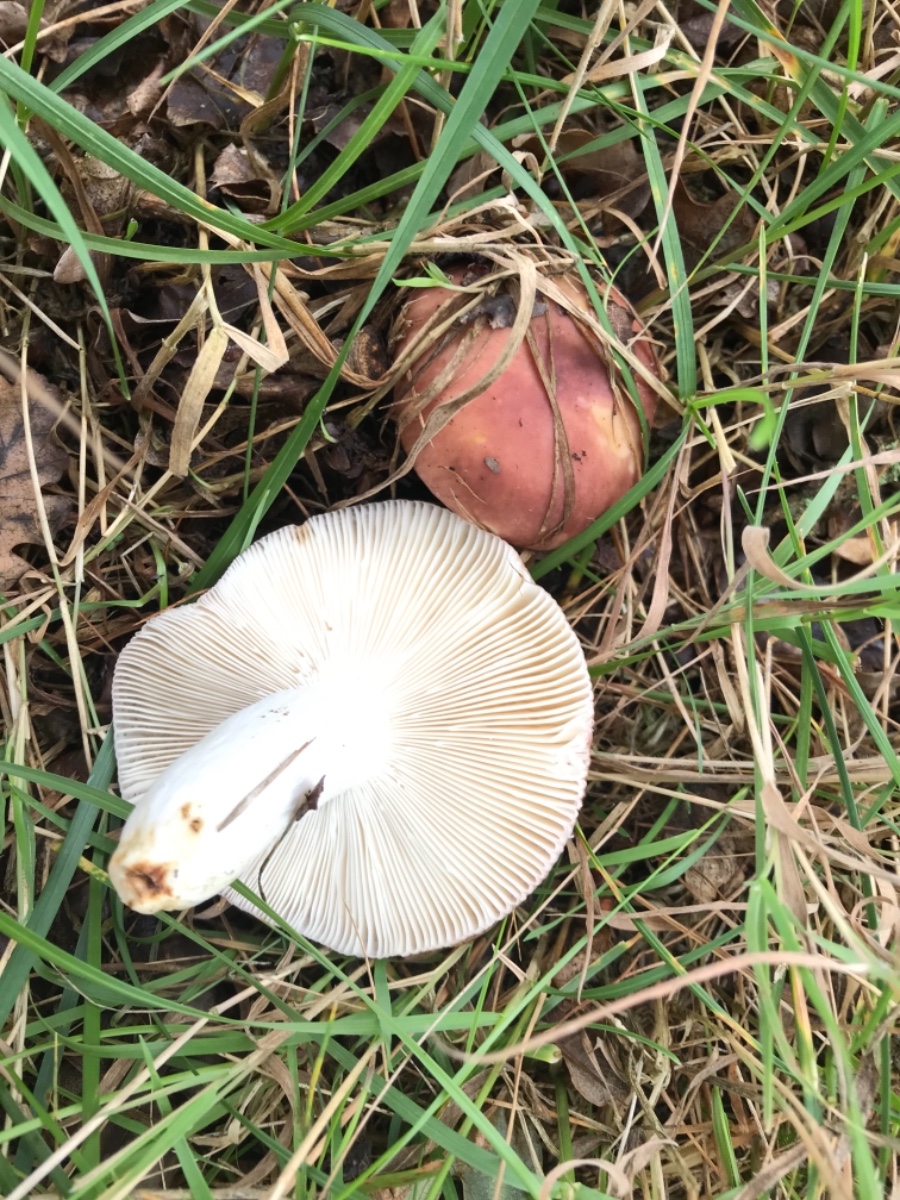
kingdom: Fungi
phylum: Basidiomycota
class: Agaricomycetes
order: Russulales
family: Russulaceae
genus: Russula
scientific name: Russula vesca
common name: spiselig skørhat
